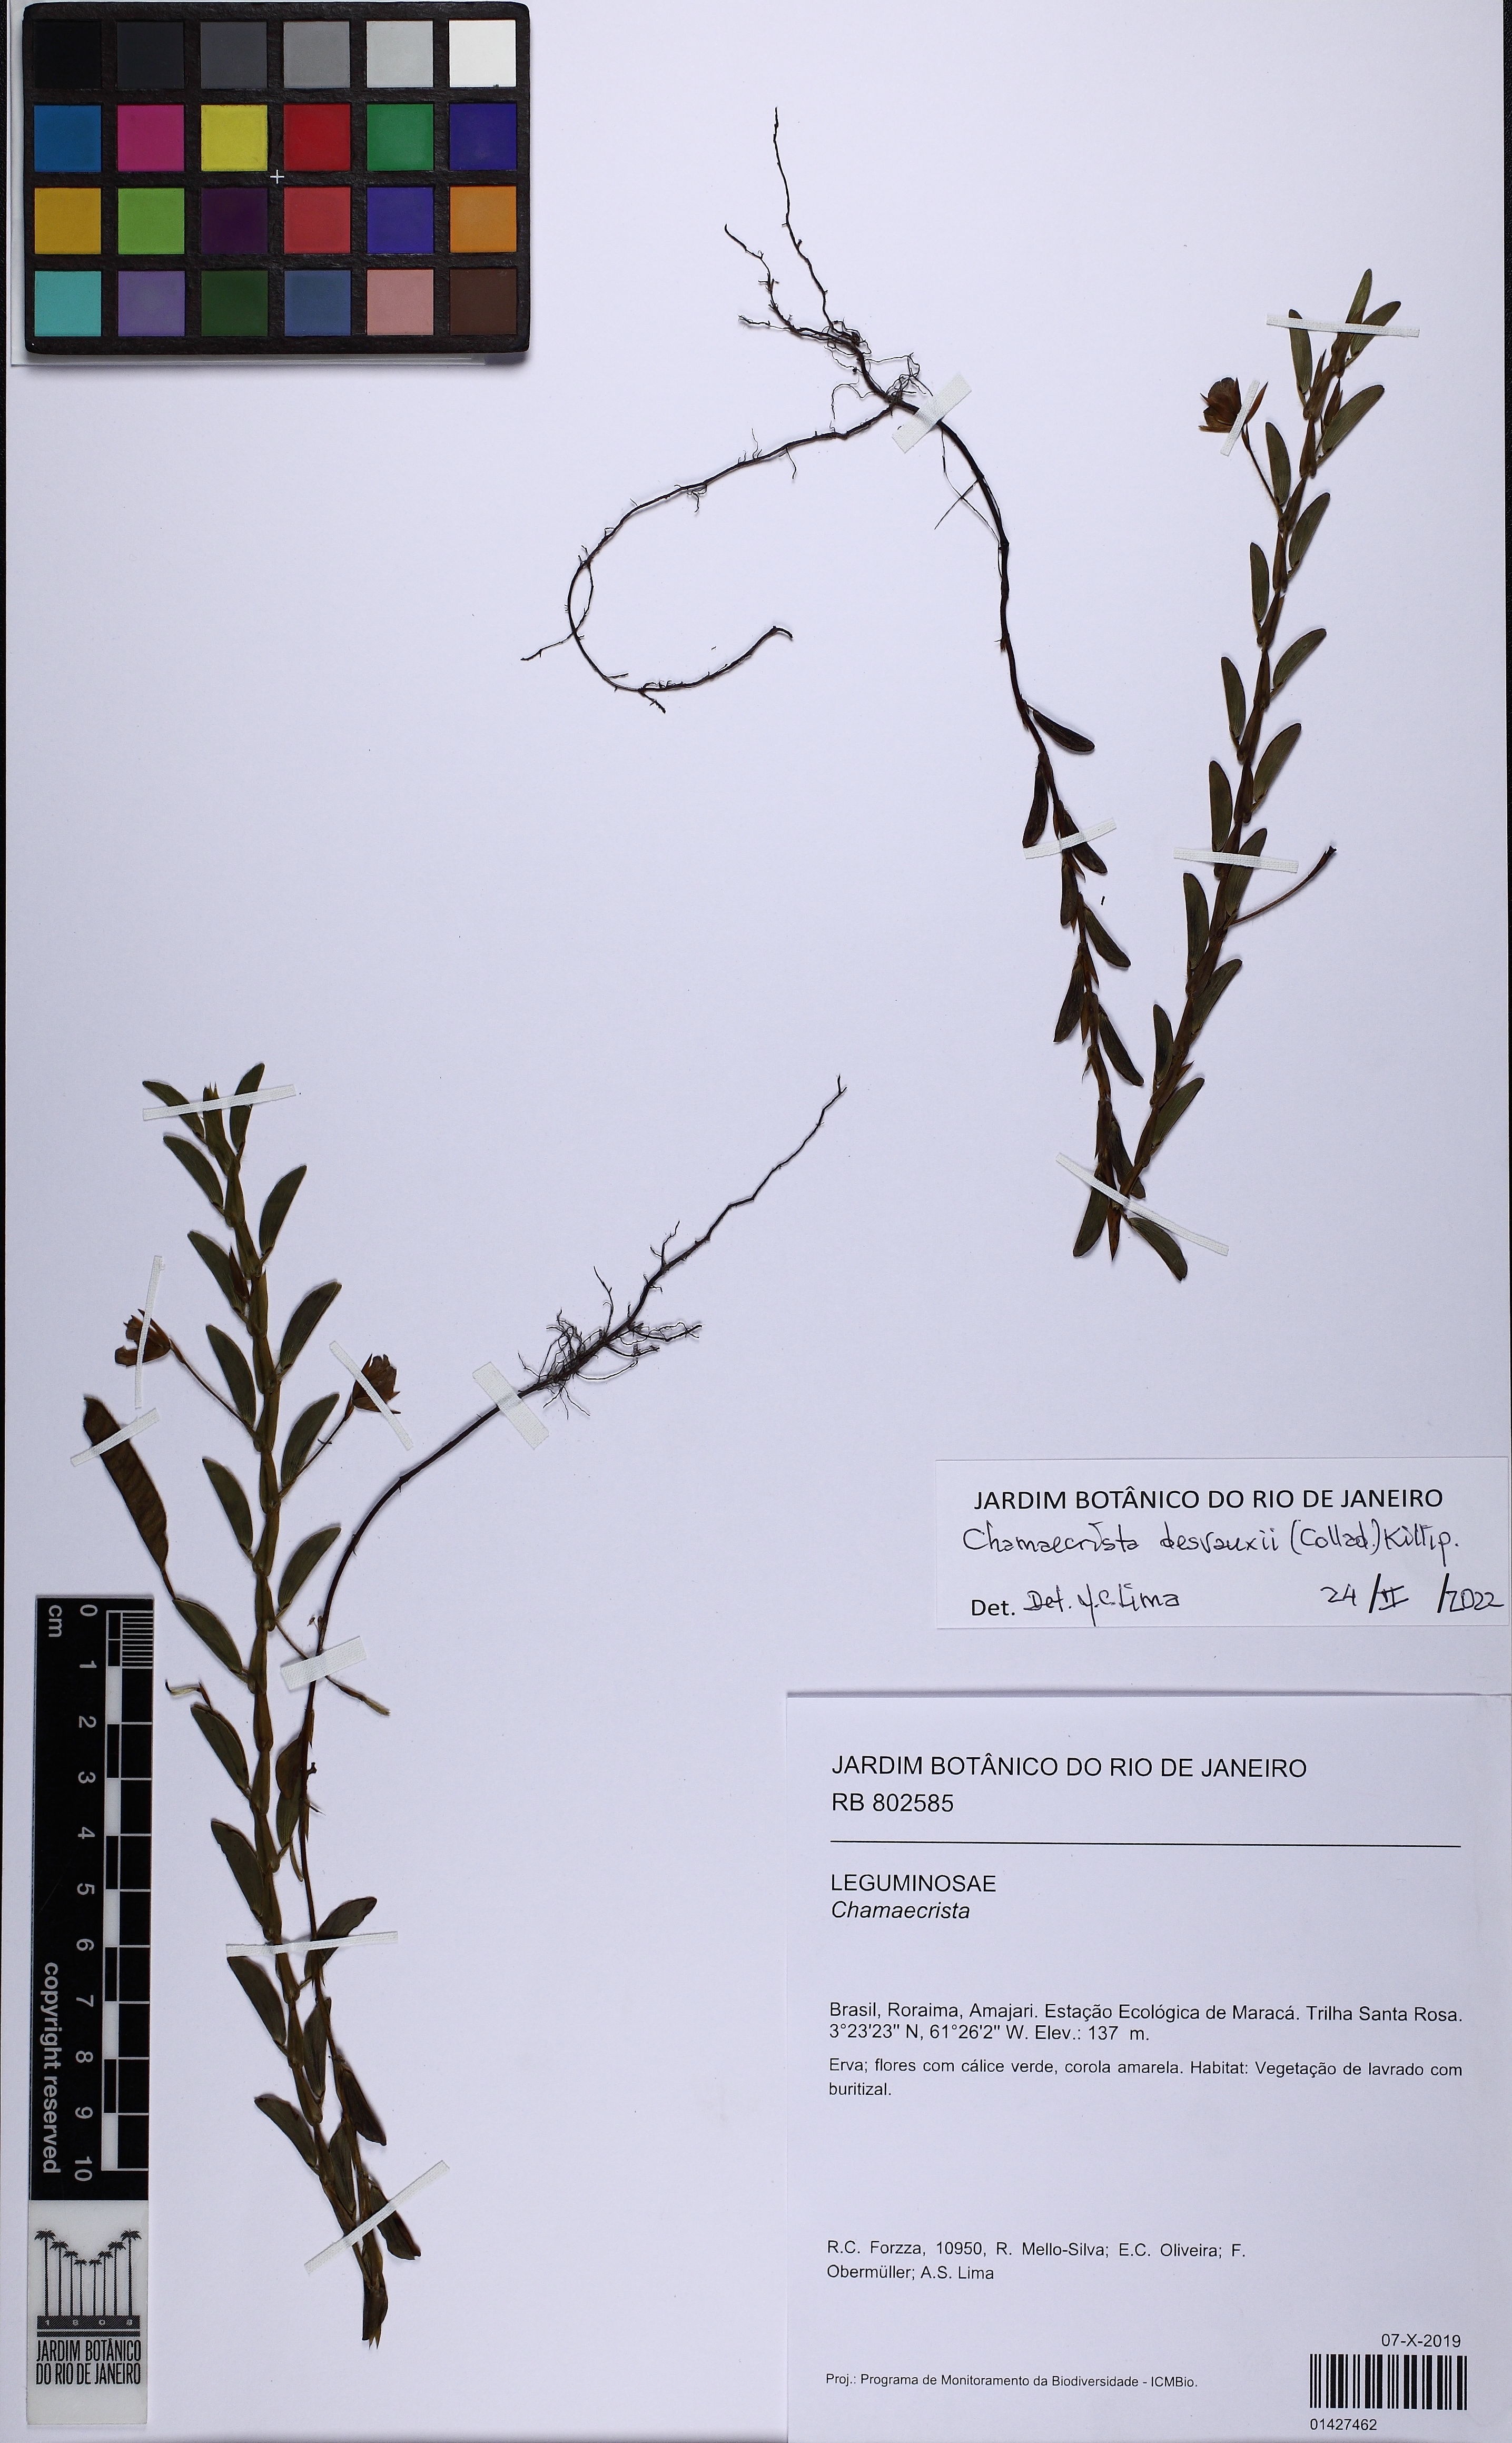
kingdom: Plantae
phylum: Tracheophyta
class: Magnoliopsida
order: Fabales
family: Fabaceae
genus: Chamaecrista
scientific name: Chamaecrista desvauxii
